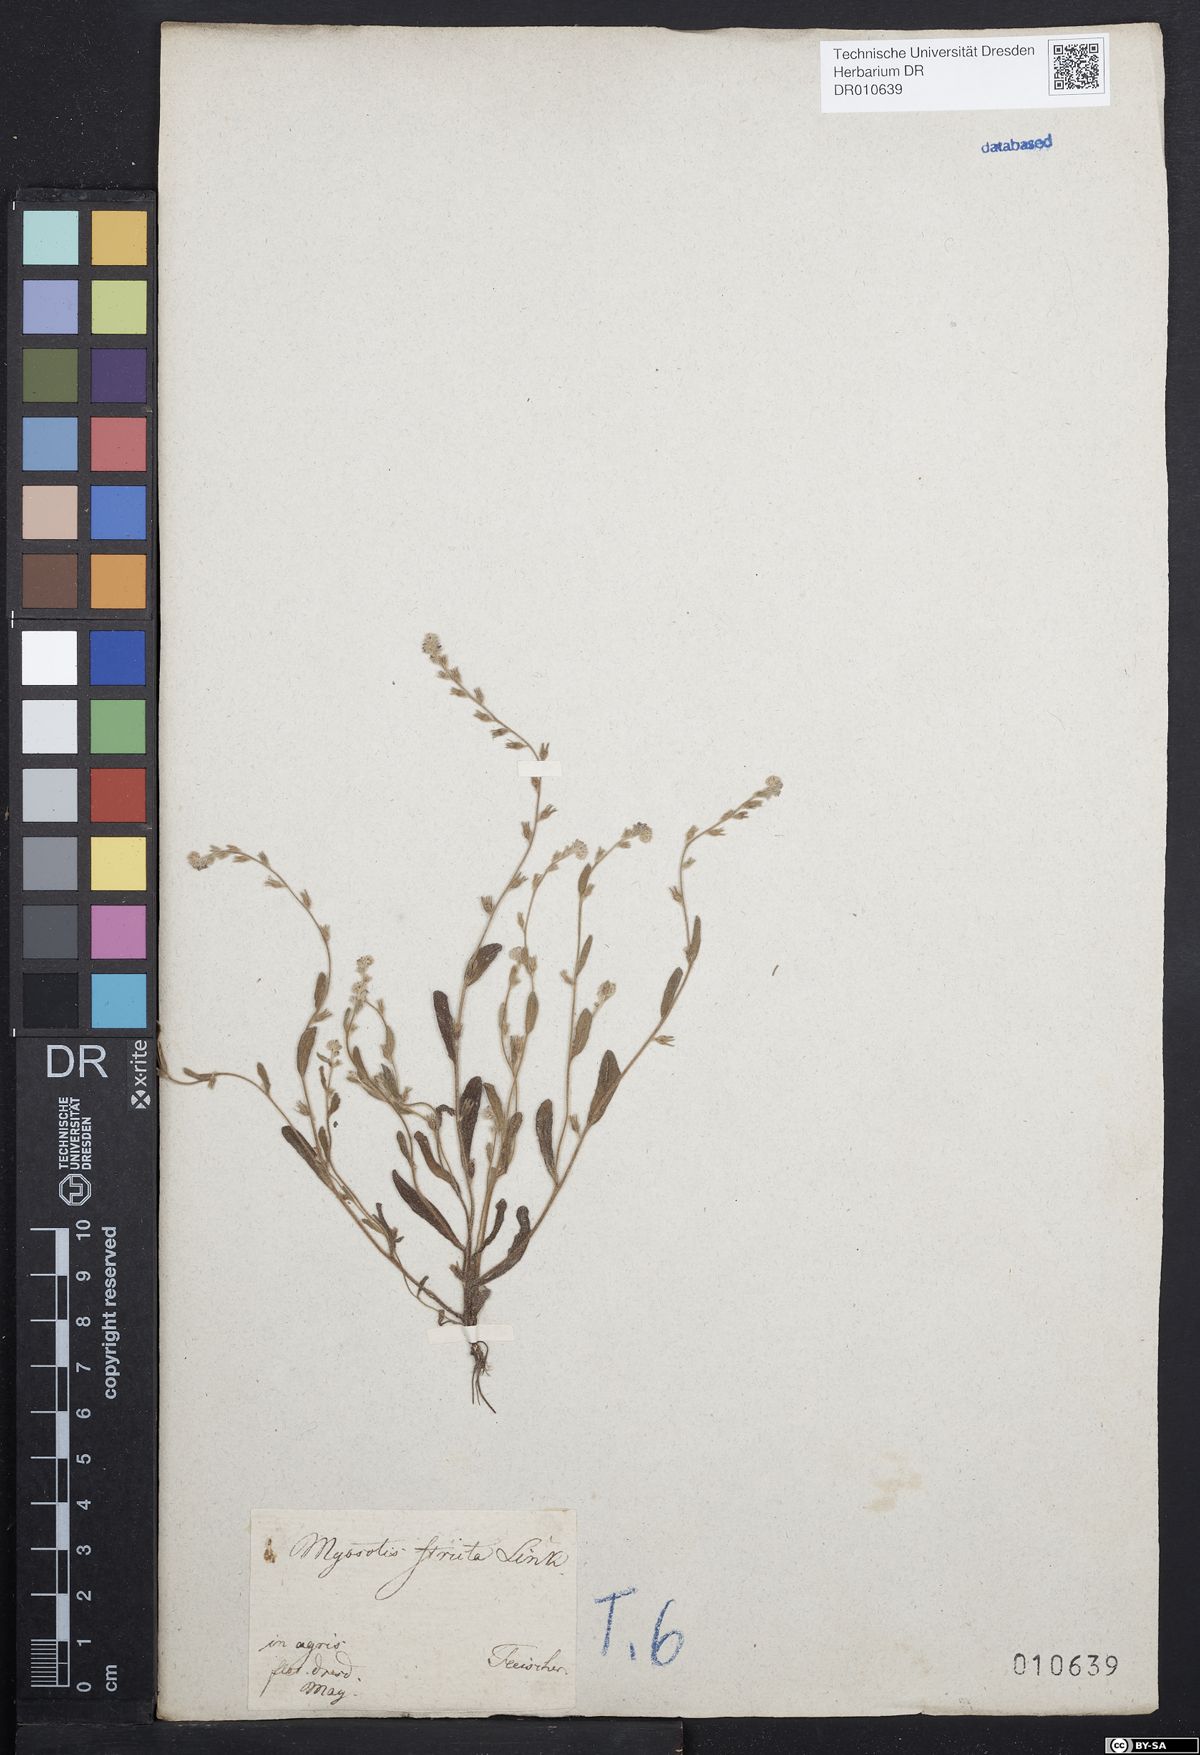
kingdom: Plantae
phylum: Tracheophyta
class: Magnoliopsida
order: Boraginales
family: Boraginaceae
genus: Myosotis
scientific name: Myosotis stricta
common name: Strict forget-me-not
